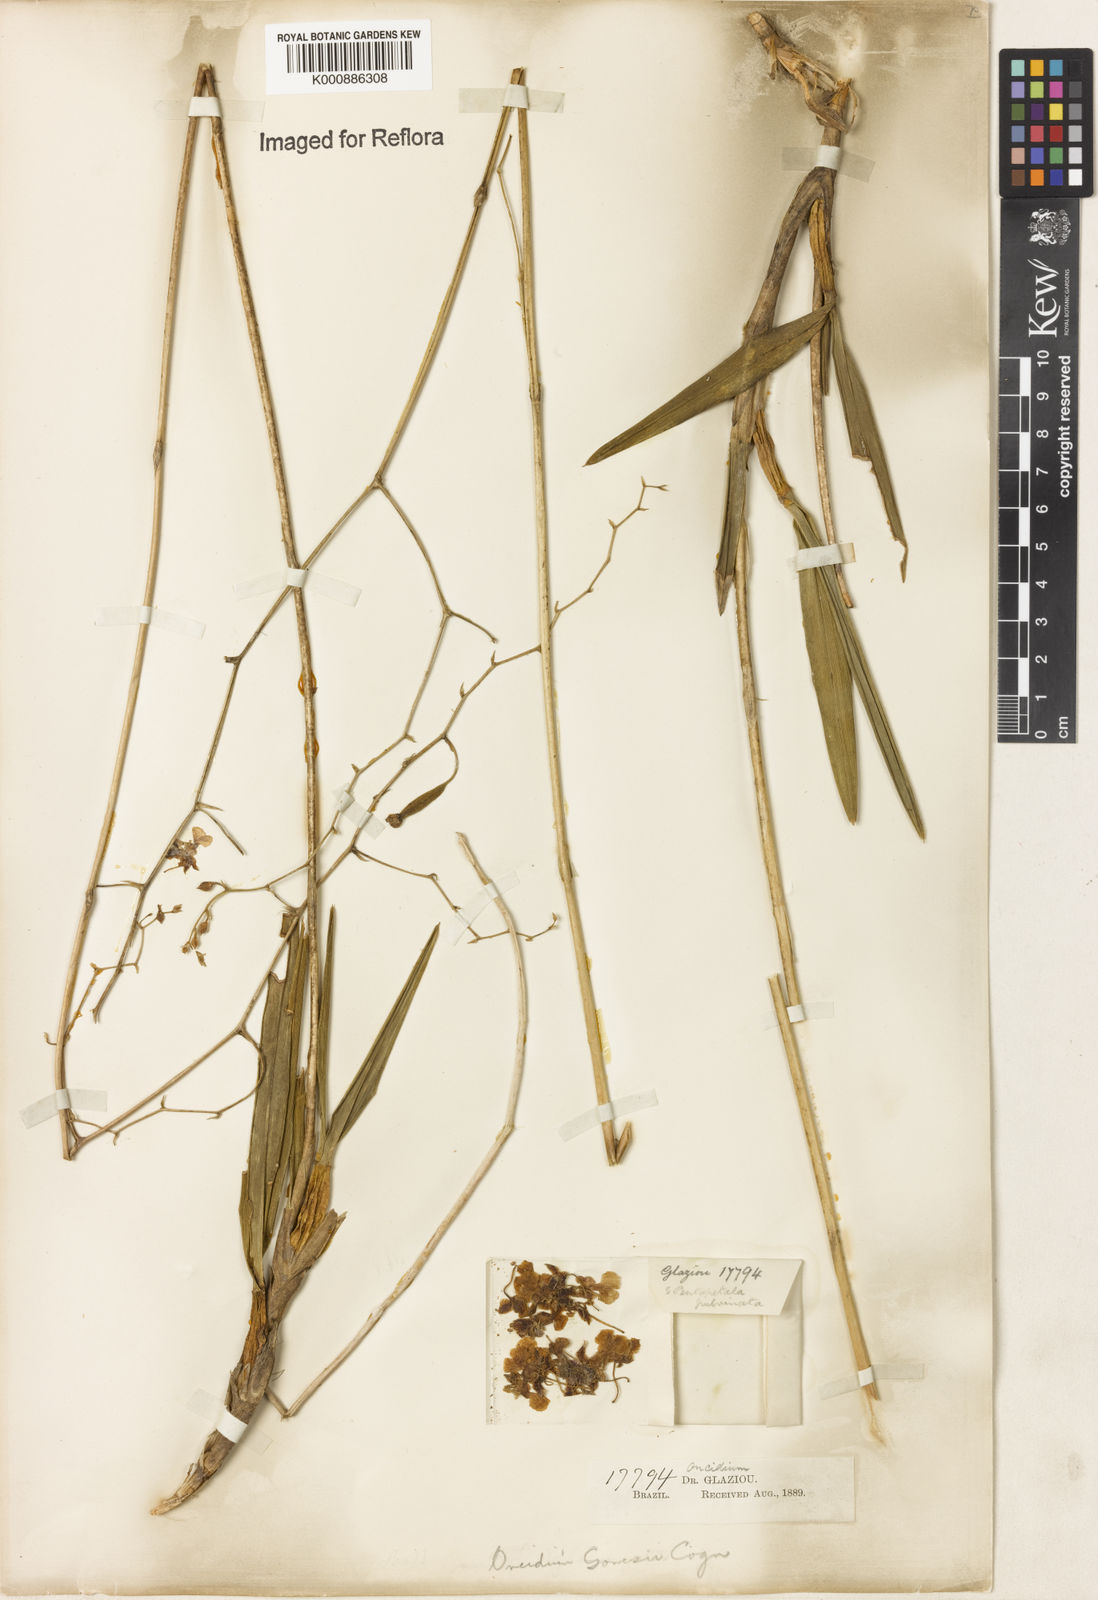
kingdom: Plantae
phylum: Tracheophyta
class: Liliopsida
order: Asparagales
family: Orchidaceae
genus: Gomesa
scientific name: Gomesa warmingii
